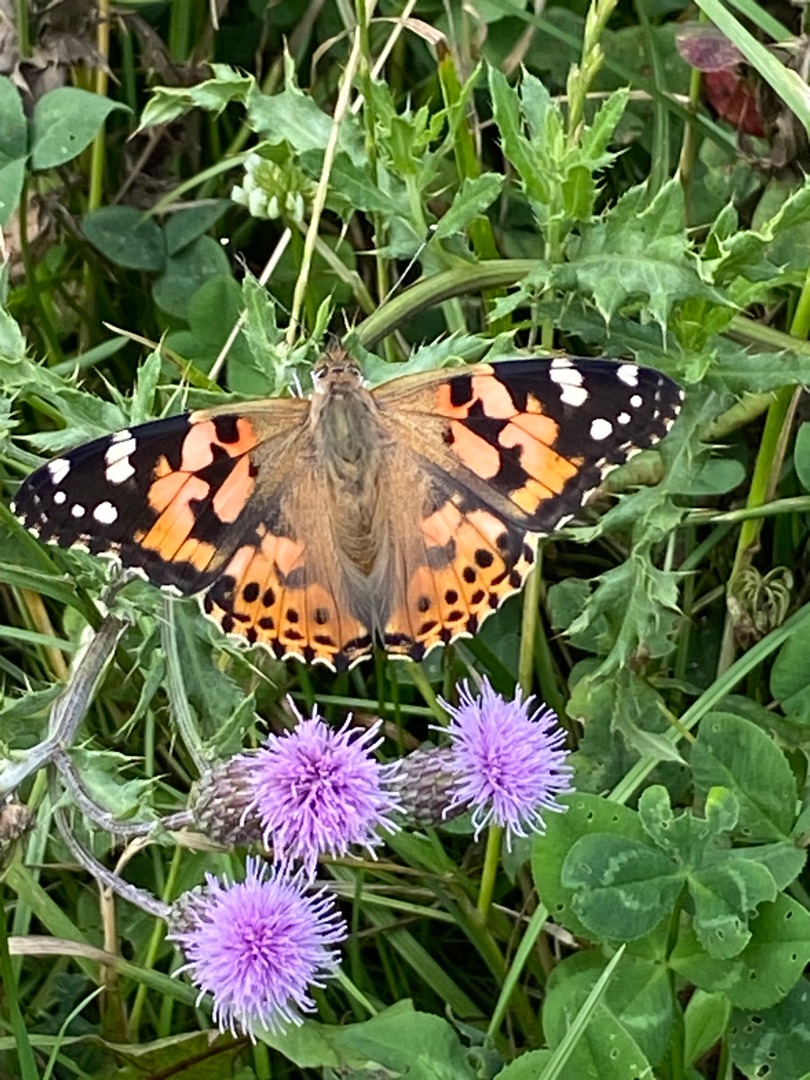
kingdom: Animalia
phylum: Arthropoda
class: Insecta
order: Lepidoptera
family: Nymphalidae
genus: Vanessa
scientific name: Vanessa cardui
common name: Tidselsommerfugl
